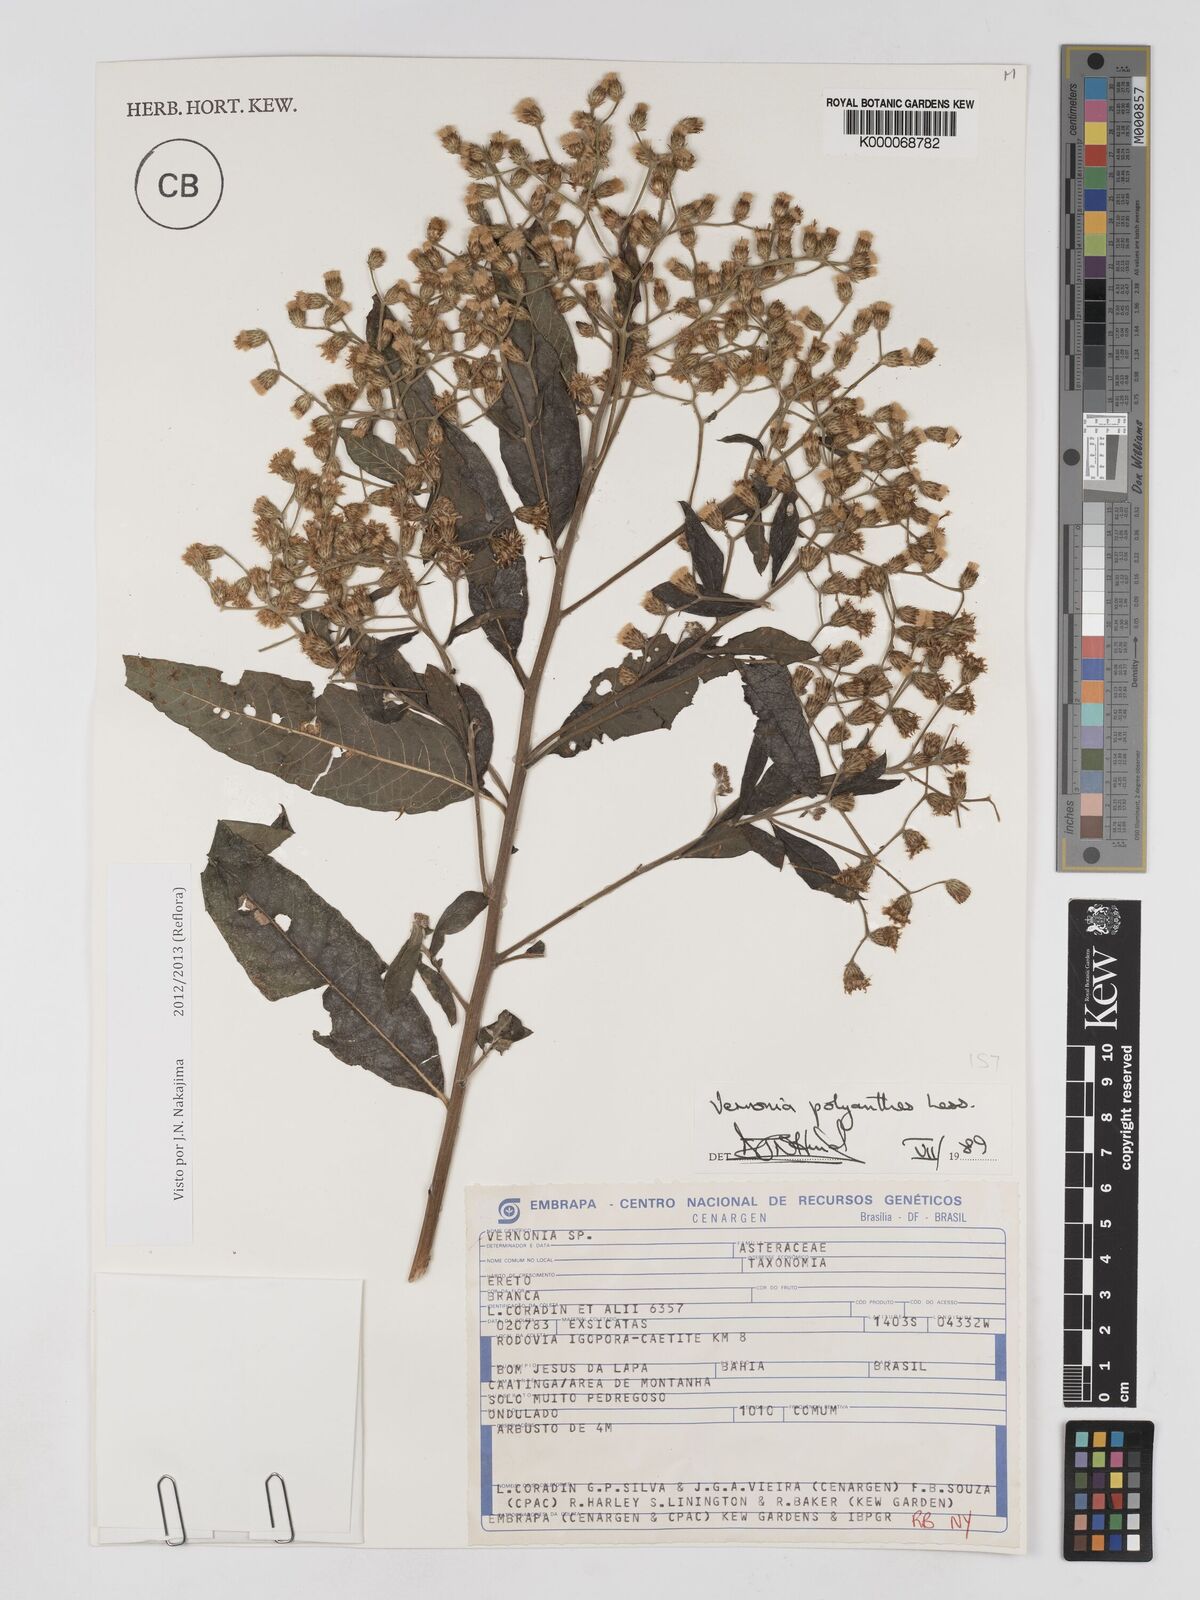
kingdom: Plantae
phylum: Tracheophyta
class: Magnoliopsida
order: Asterales
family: Asteraceae
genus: Vernonanthura
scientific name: Vernonanthura polyanthes
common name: Tree aster
